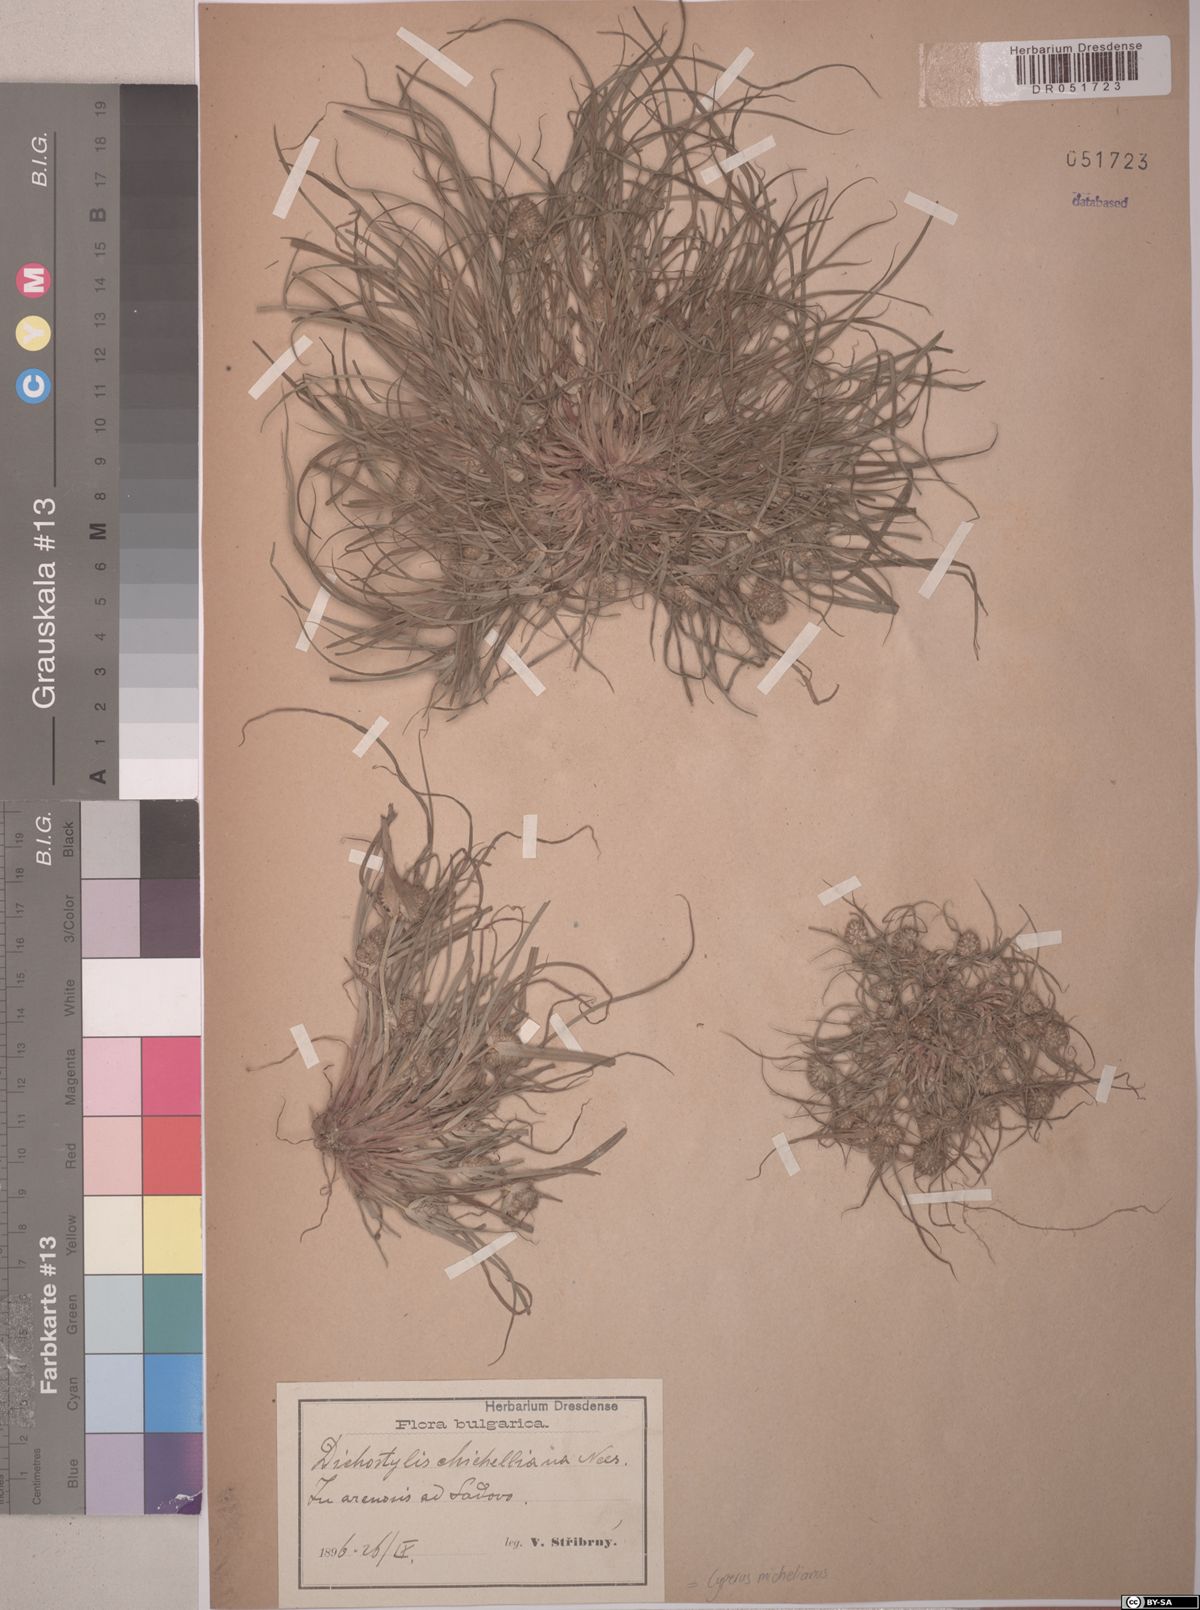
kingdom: Plantae
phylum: Tracheophyta
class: Liliopsida
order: Poales
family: Cyperaceae
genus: Cyperus
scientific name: Cyperus michelianus
